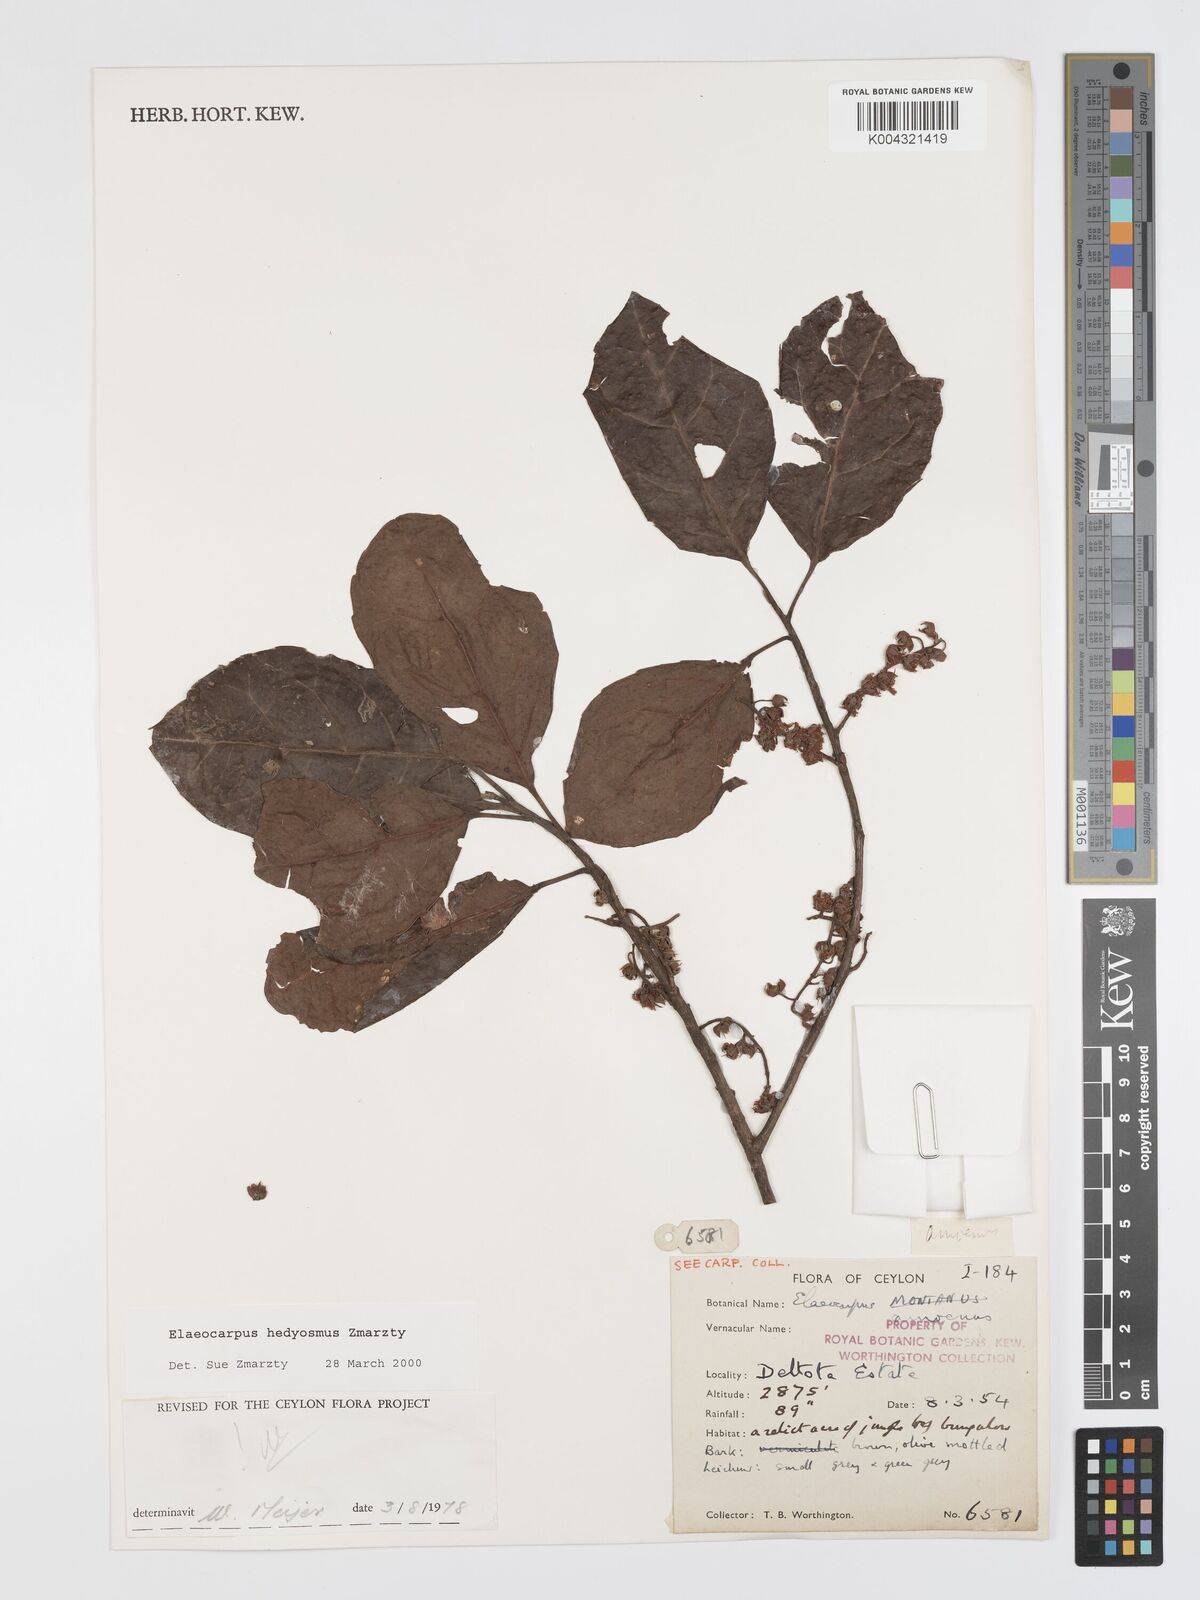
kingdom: Plantae
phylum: Tracheophyta
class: Magnoliopsida
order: Oxalidales
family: Elaeocarpaceae
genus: Elaeocarpus
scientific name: Elaeocarpus hedyosmus
